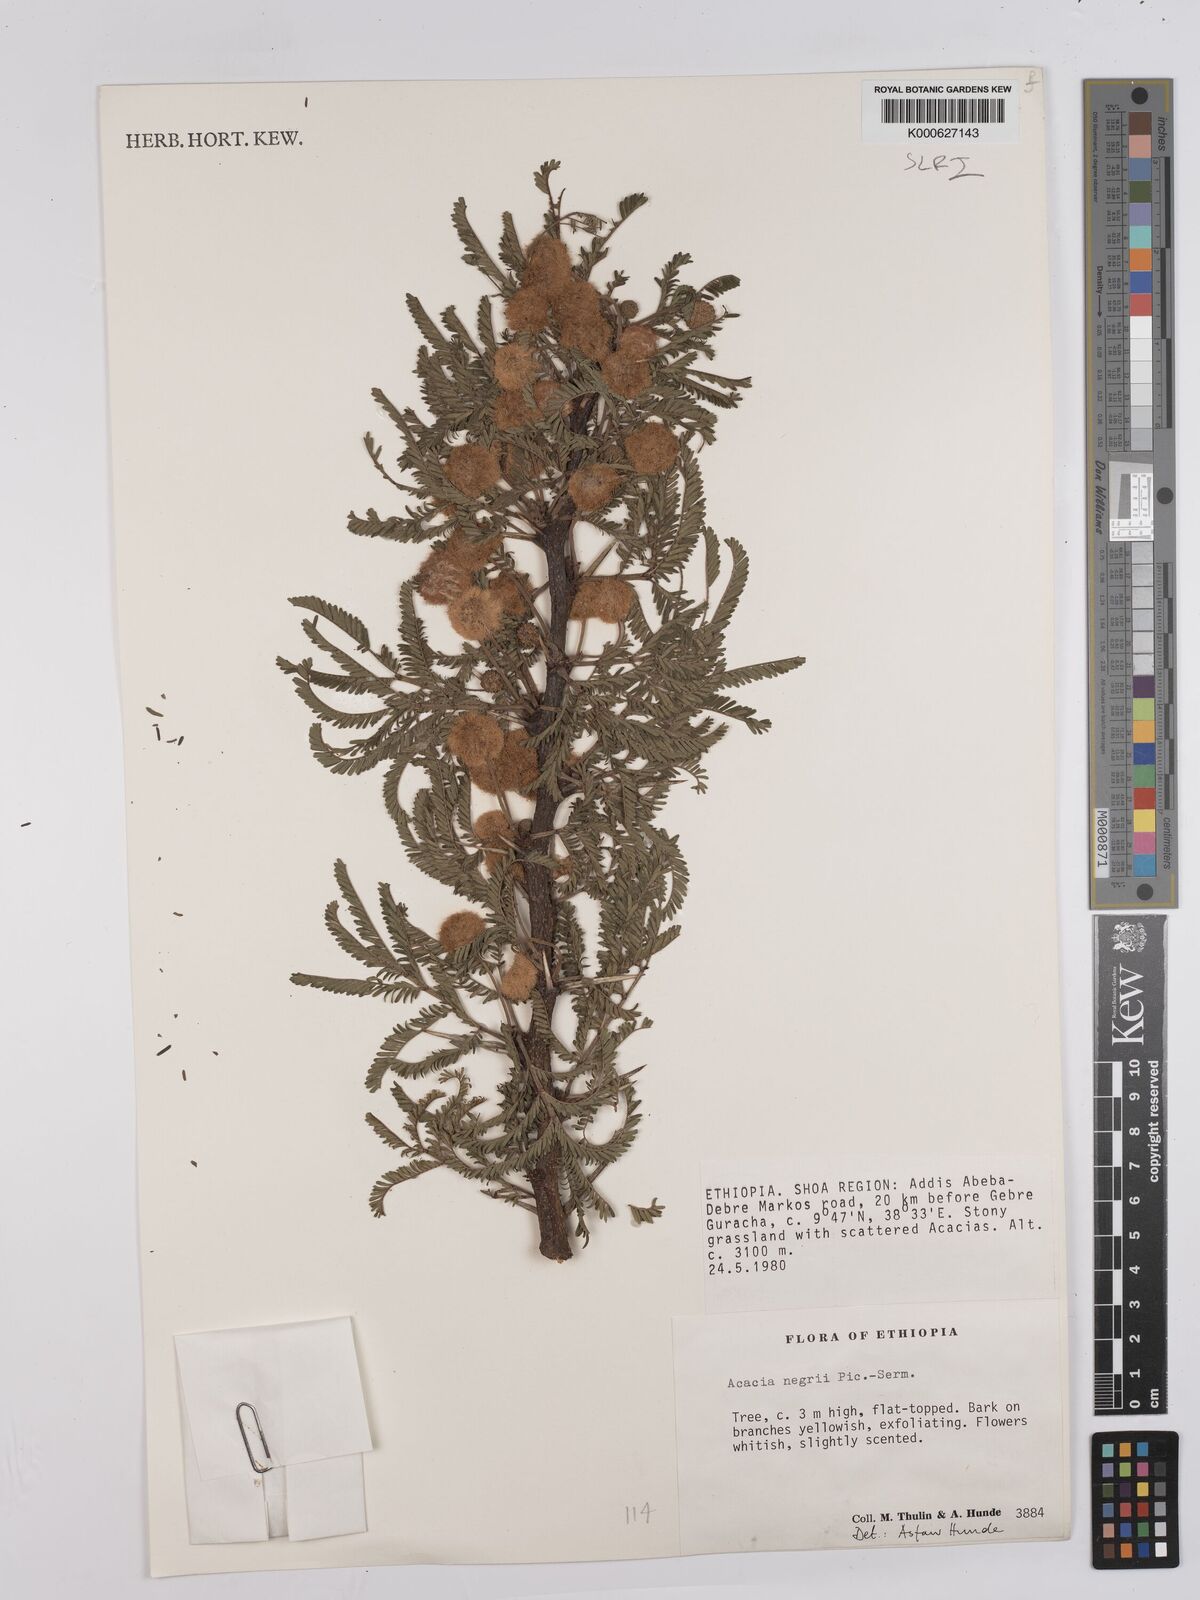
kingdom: Plantae
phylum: Tracheophyta
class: Magnoliopsida
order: Fabales
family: Fabaceae
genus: Vachellia
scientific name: Vachellia negrii
